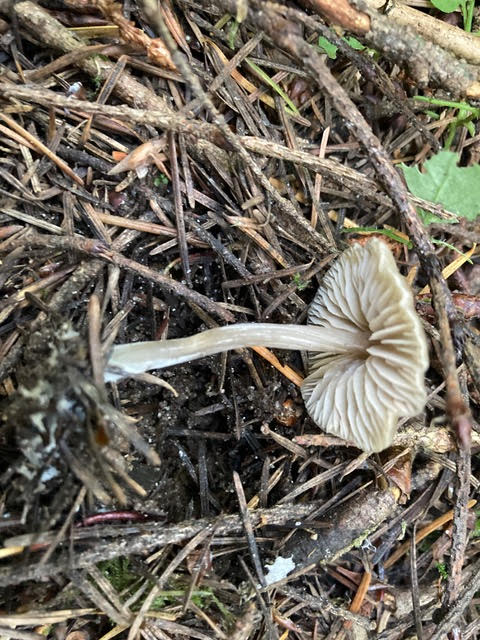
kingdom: Fungi
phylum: Basidiomycota
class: Agaricomycetes
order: Agaricales
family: Entolomataceae
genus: Entoloma
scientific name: Entoloma minutum
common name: liden rødblad
